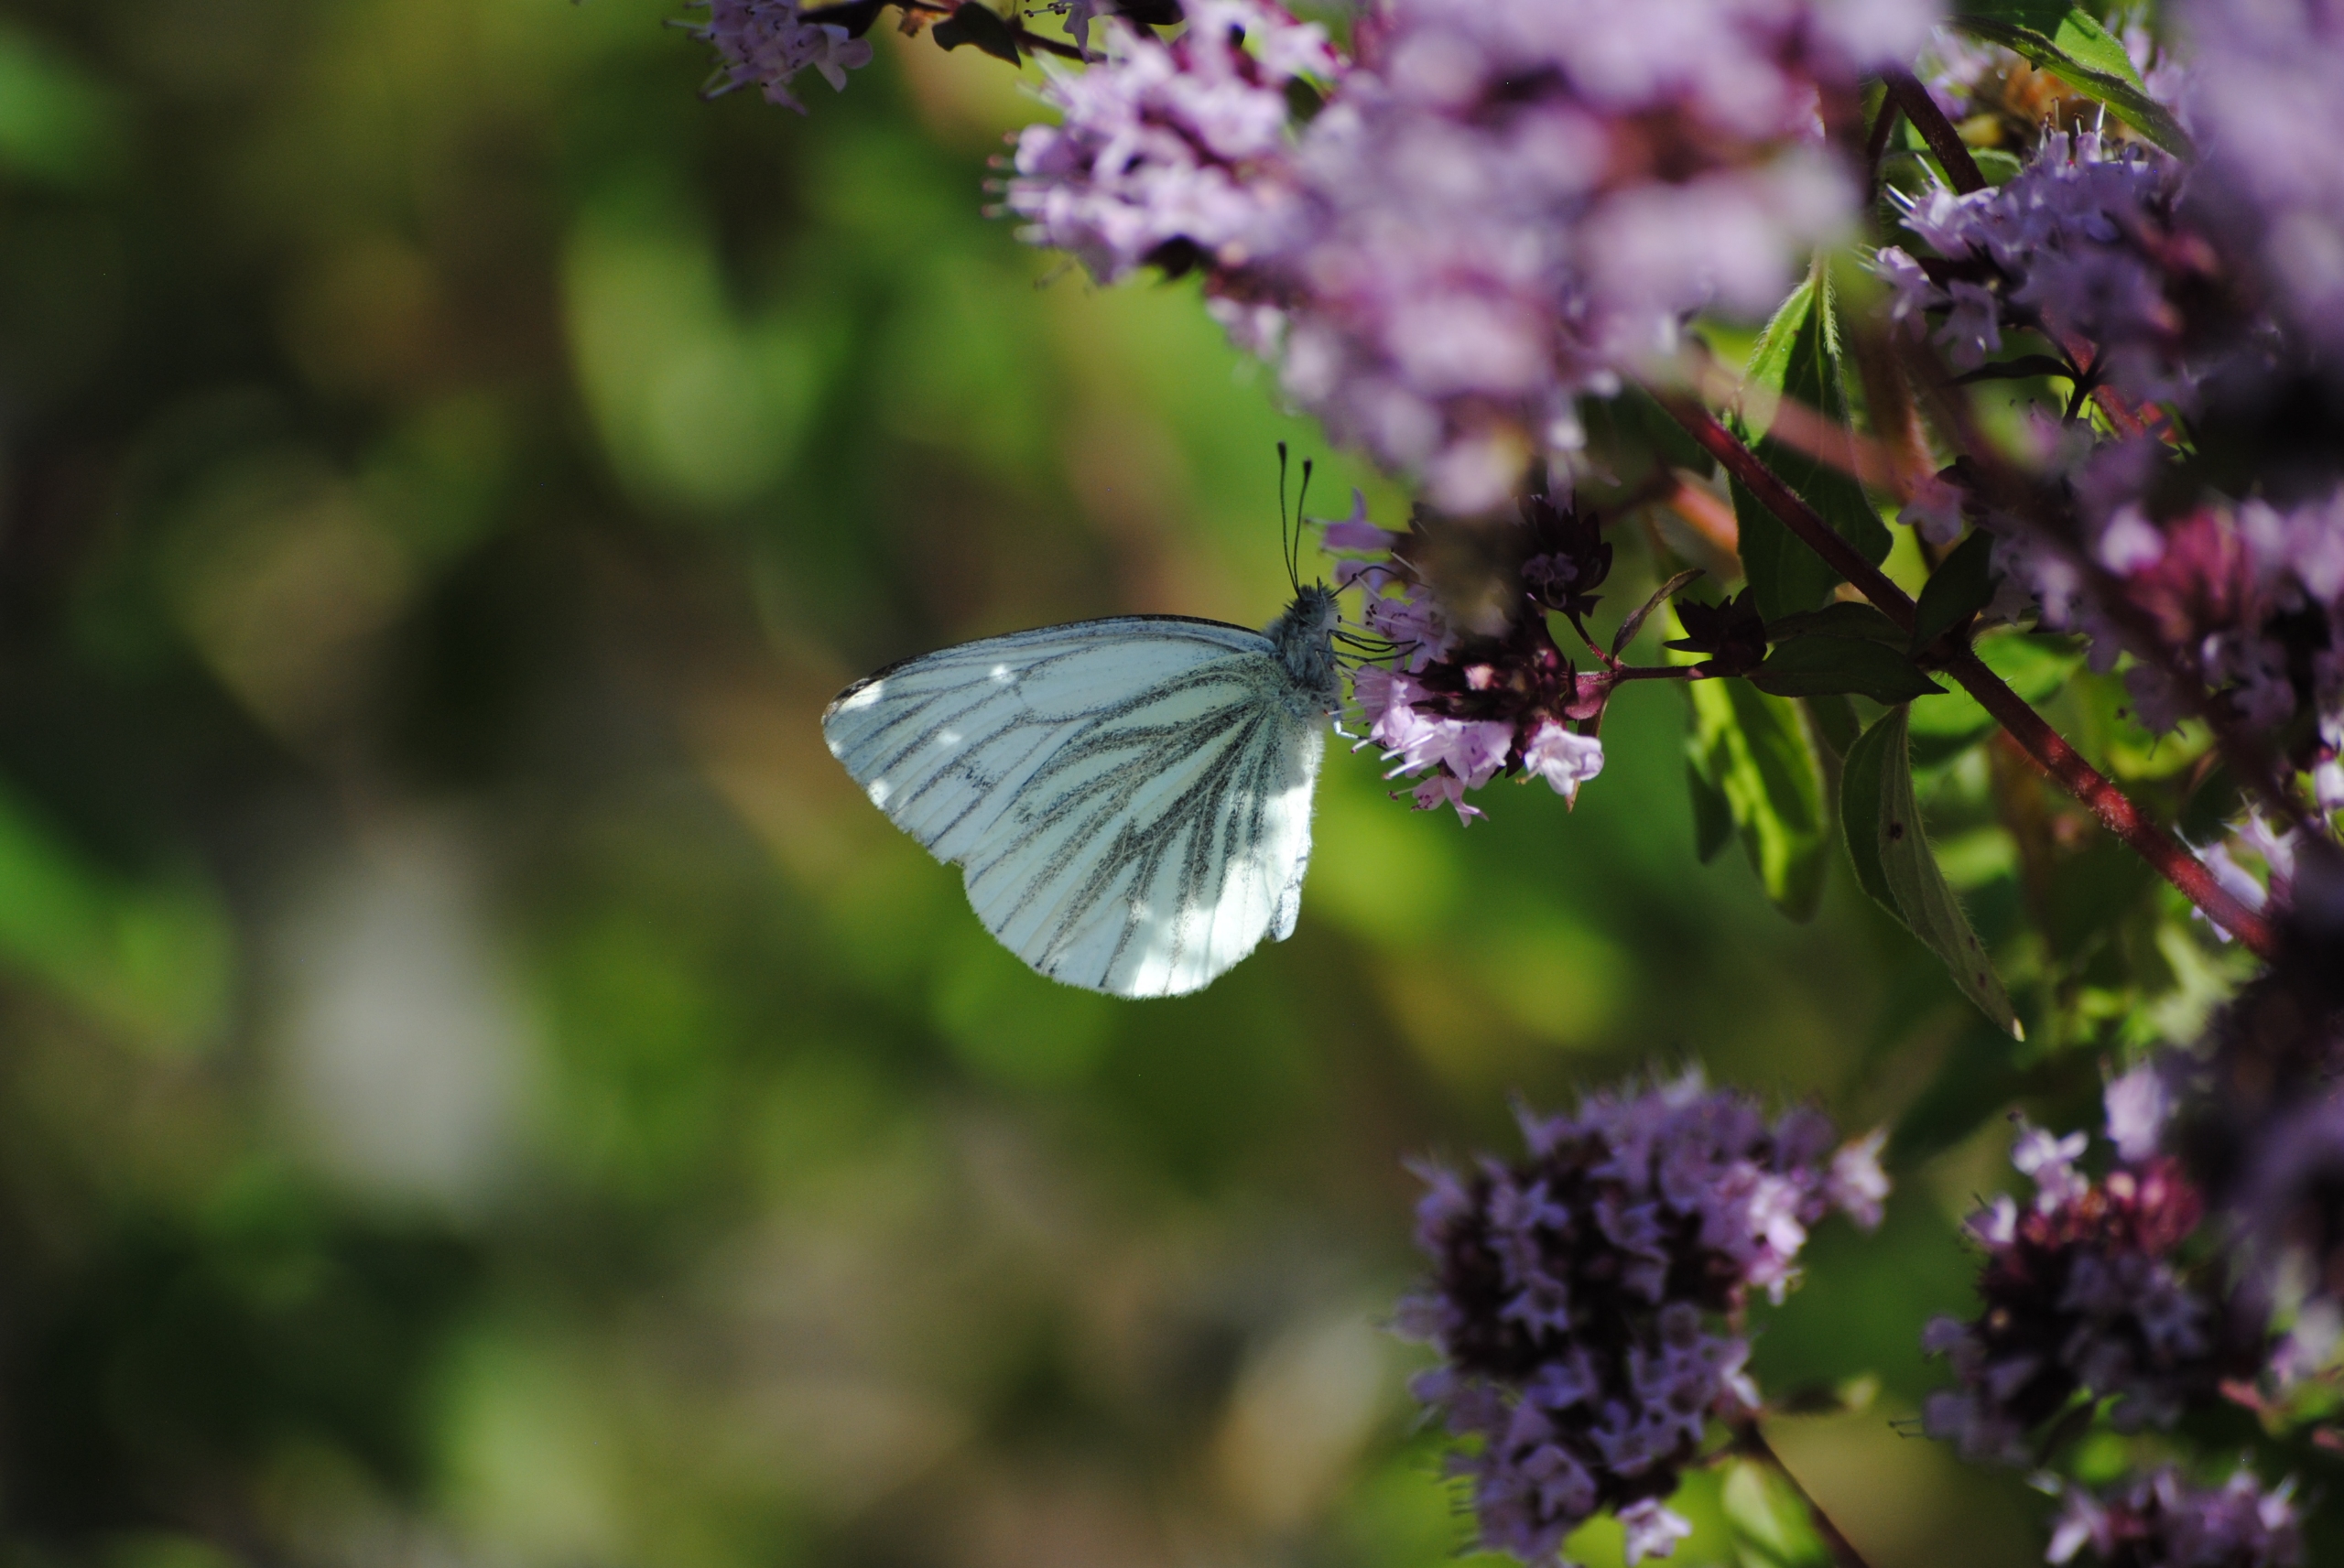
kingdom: Animalia
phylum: Arthropoda
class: Insecta
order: Lepidoptera
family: Pieridae
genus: Pieris
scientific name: Pieris napi
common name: Grønåret kålsommerfugl
